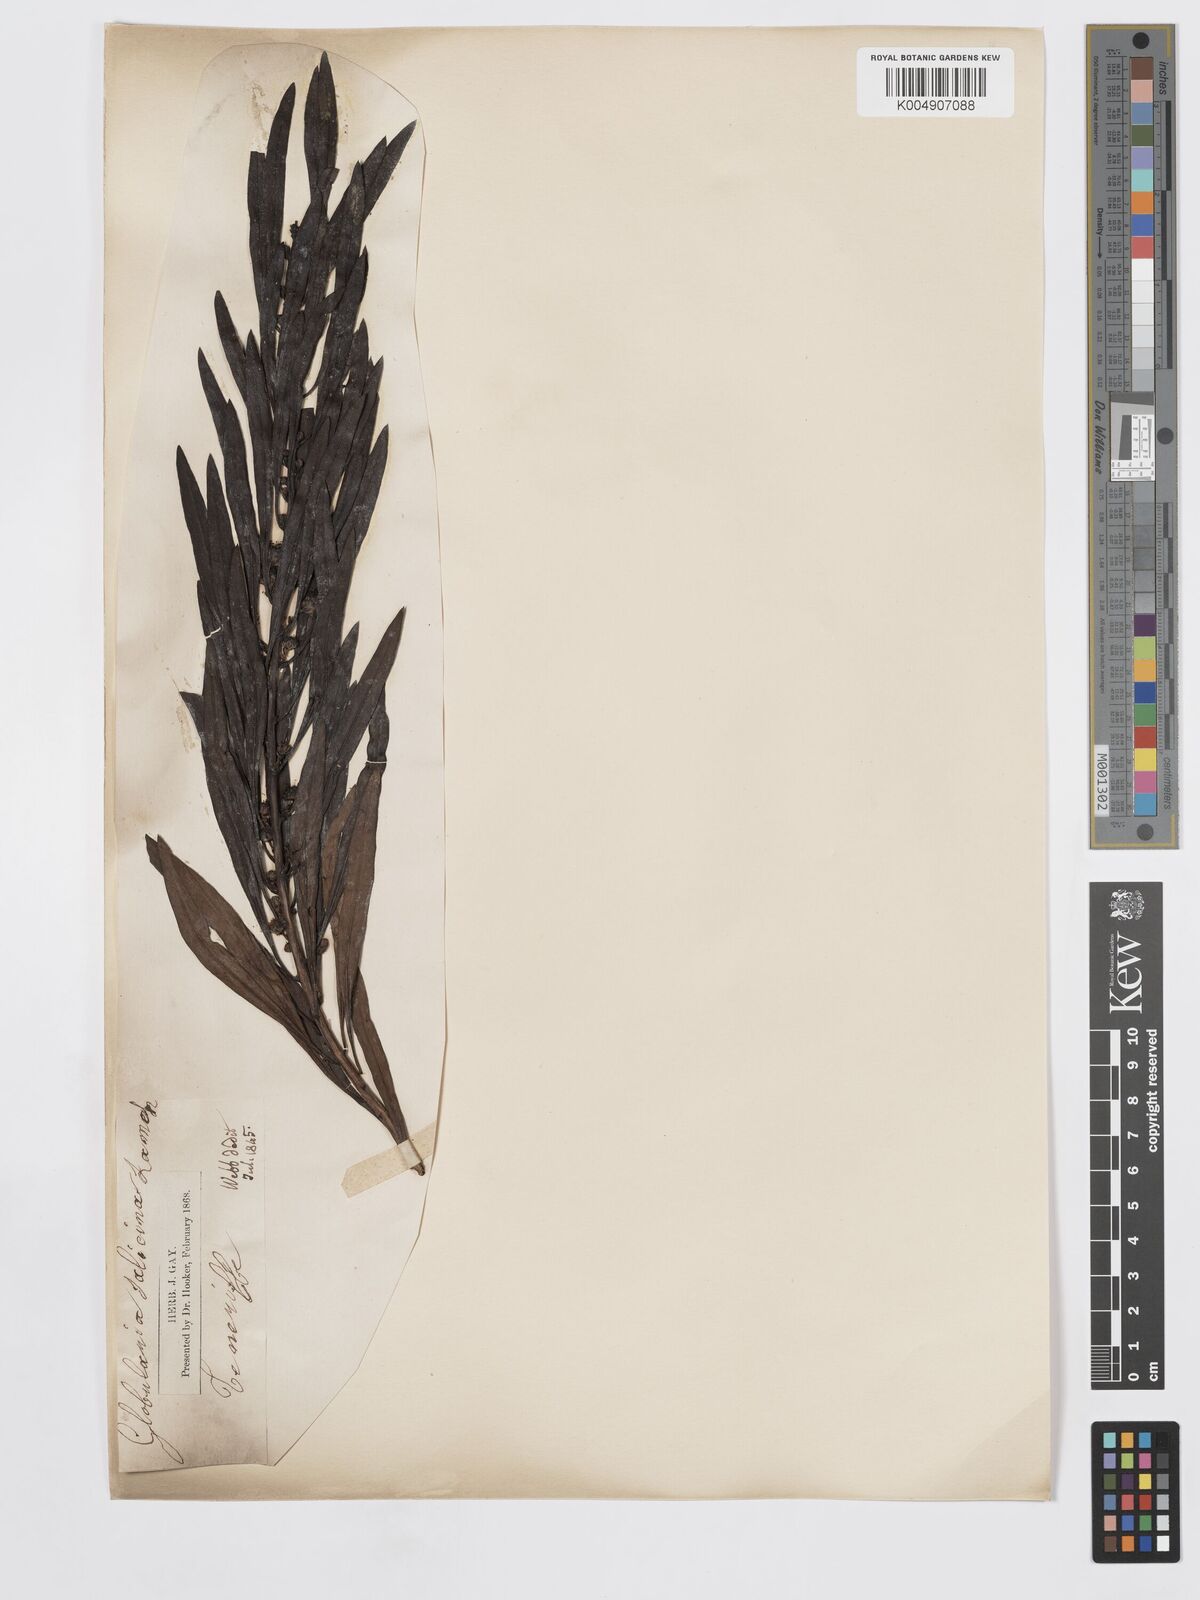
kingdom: Plantae
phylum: Tracheophyta
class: Magnoliopsida
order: Lamiales
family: Plantaginaceae
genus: Globularia
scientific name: Globularia salicina
